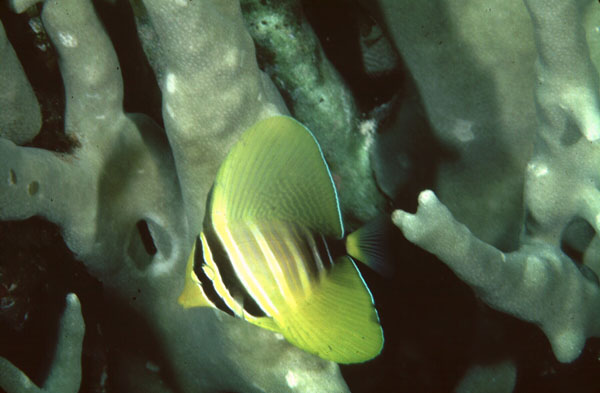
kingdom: Animalia
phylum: Chordata
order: Perciformes
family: Acanthuridae
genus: Zebrasoma
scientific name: Zebrasoma veliferum
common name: Sailfin surgeonfish
